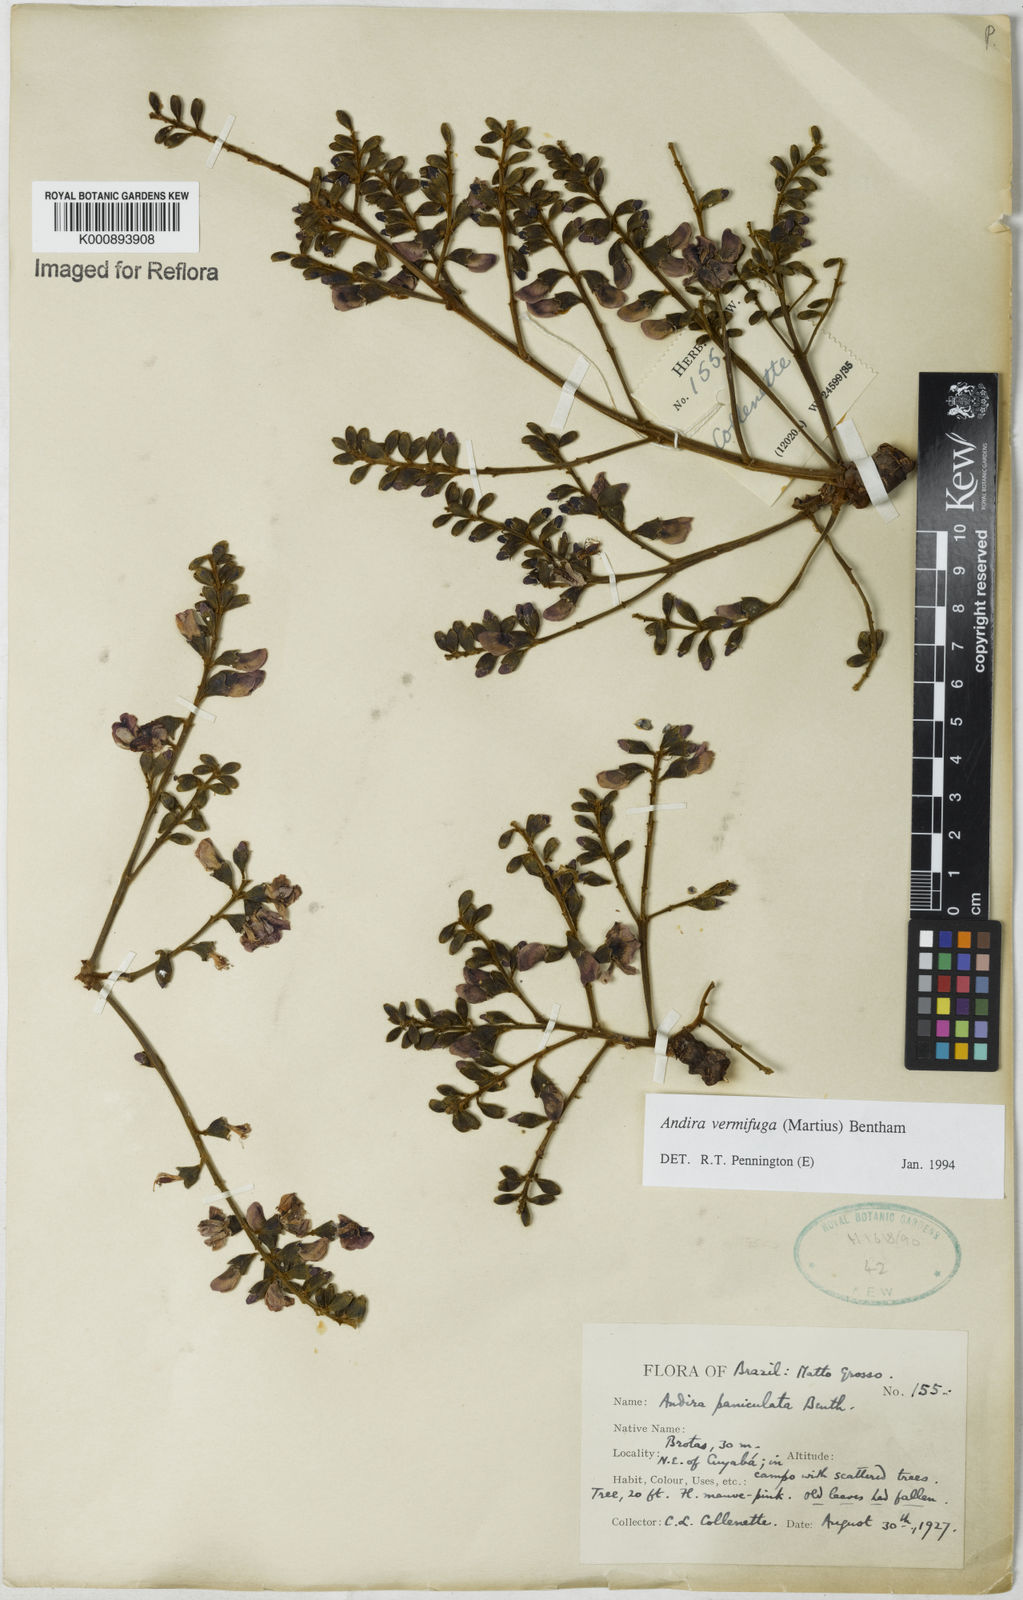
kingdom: Plantae
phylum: Tracheophyta
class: Magnoliopsida
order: Fabales
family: Fabaceae
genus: Andira
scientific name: Andira vermifuga
